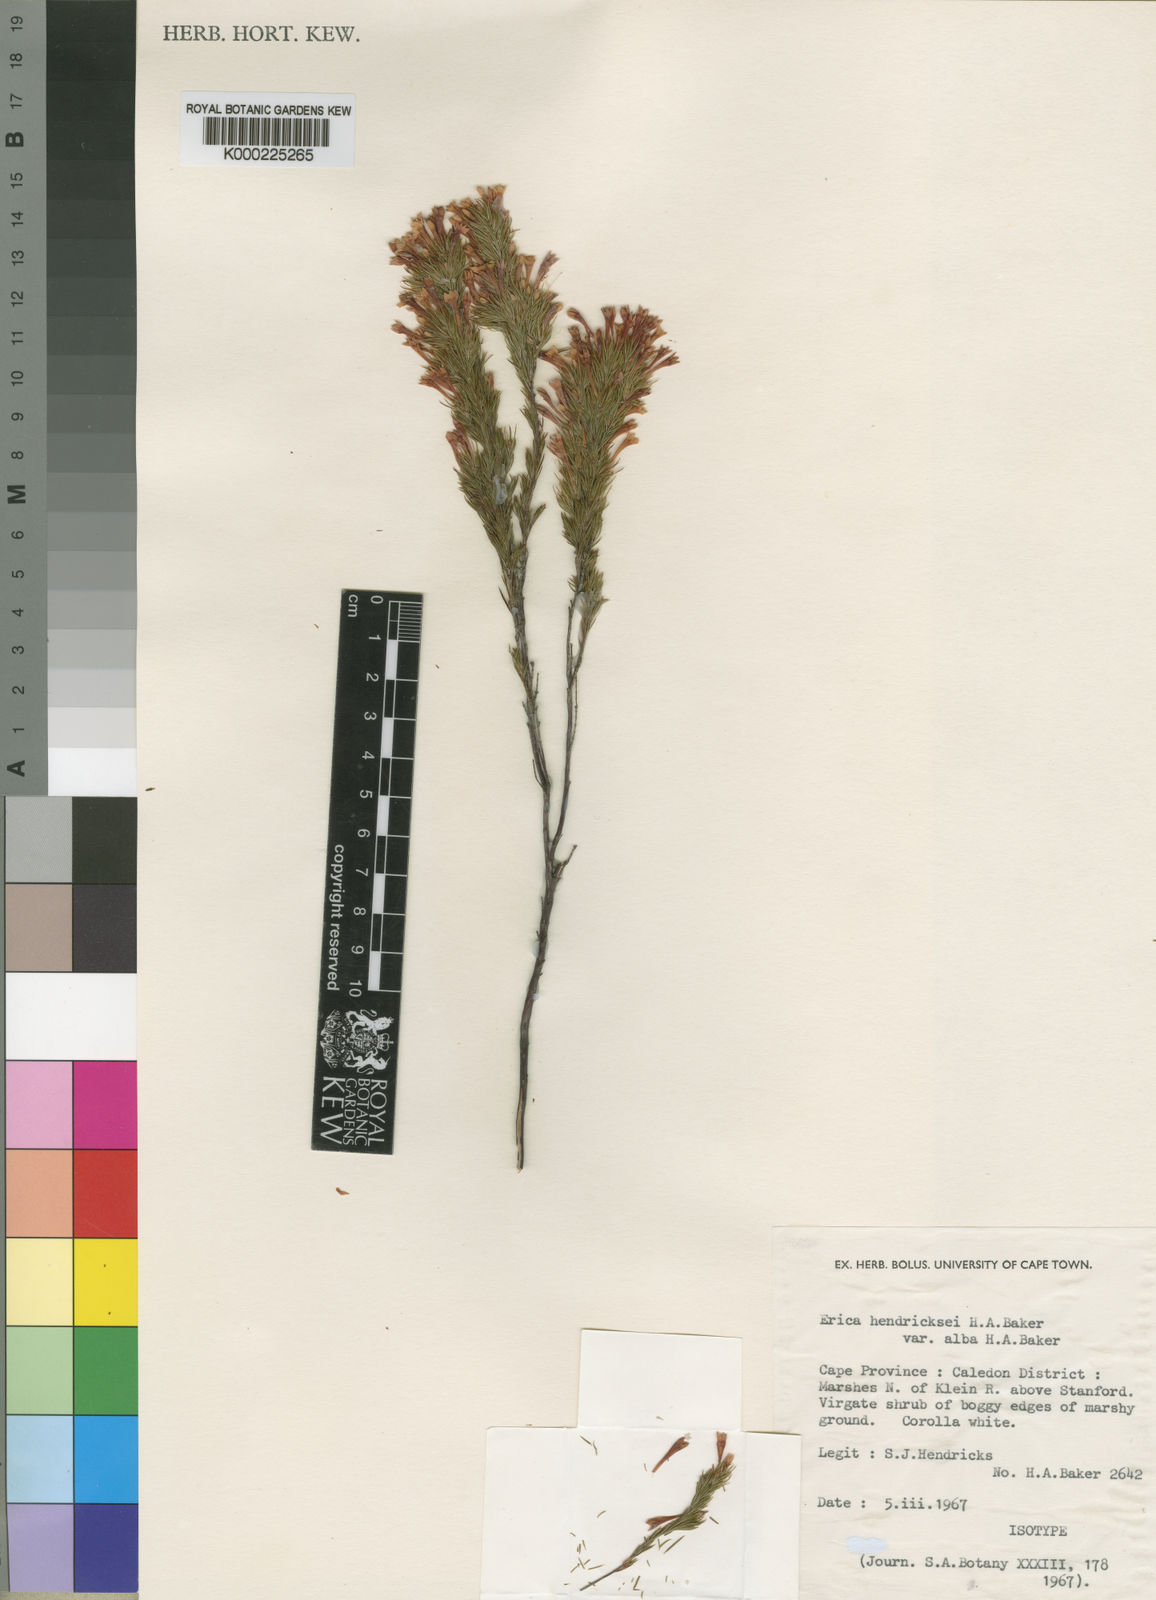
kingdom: Plantae
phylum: Tracheophyta
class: Magnoliopsida
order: Ericales
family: Ericaceae
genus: Erica
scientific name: Erica hendricksei
